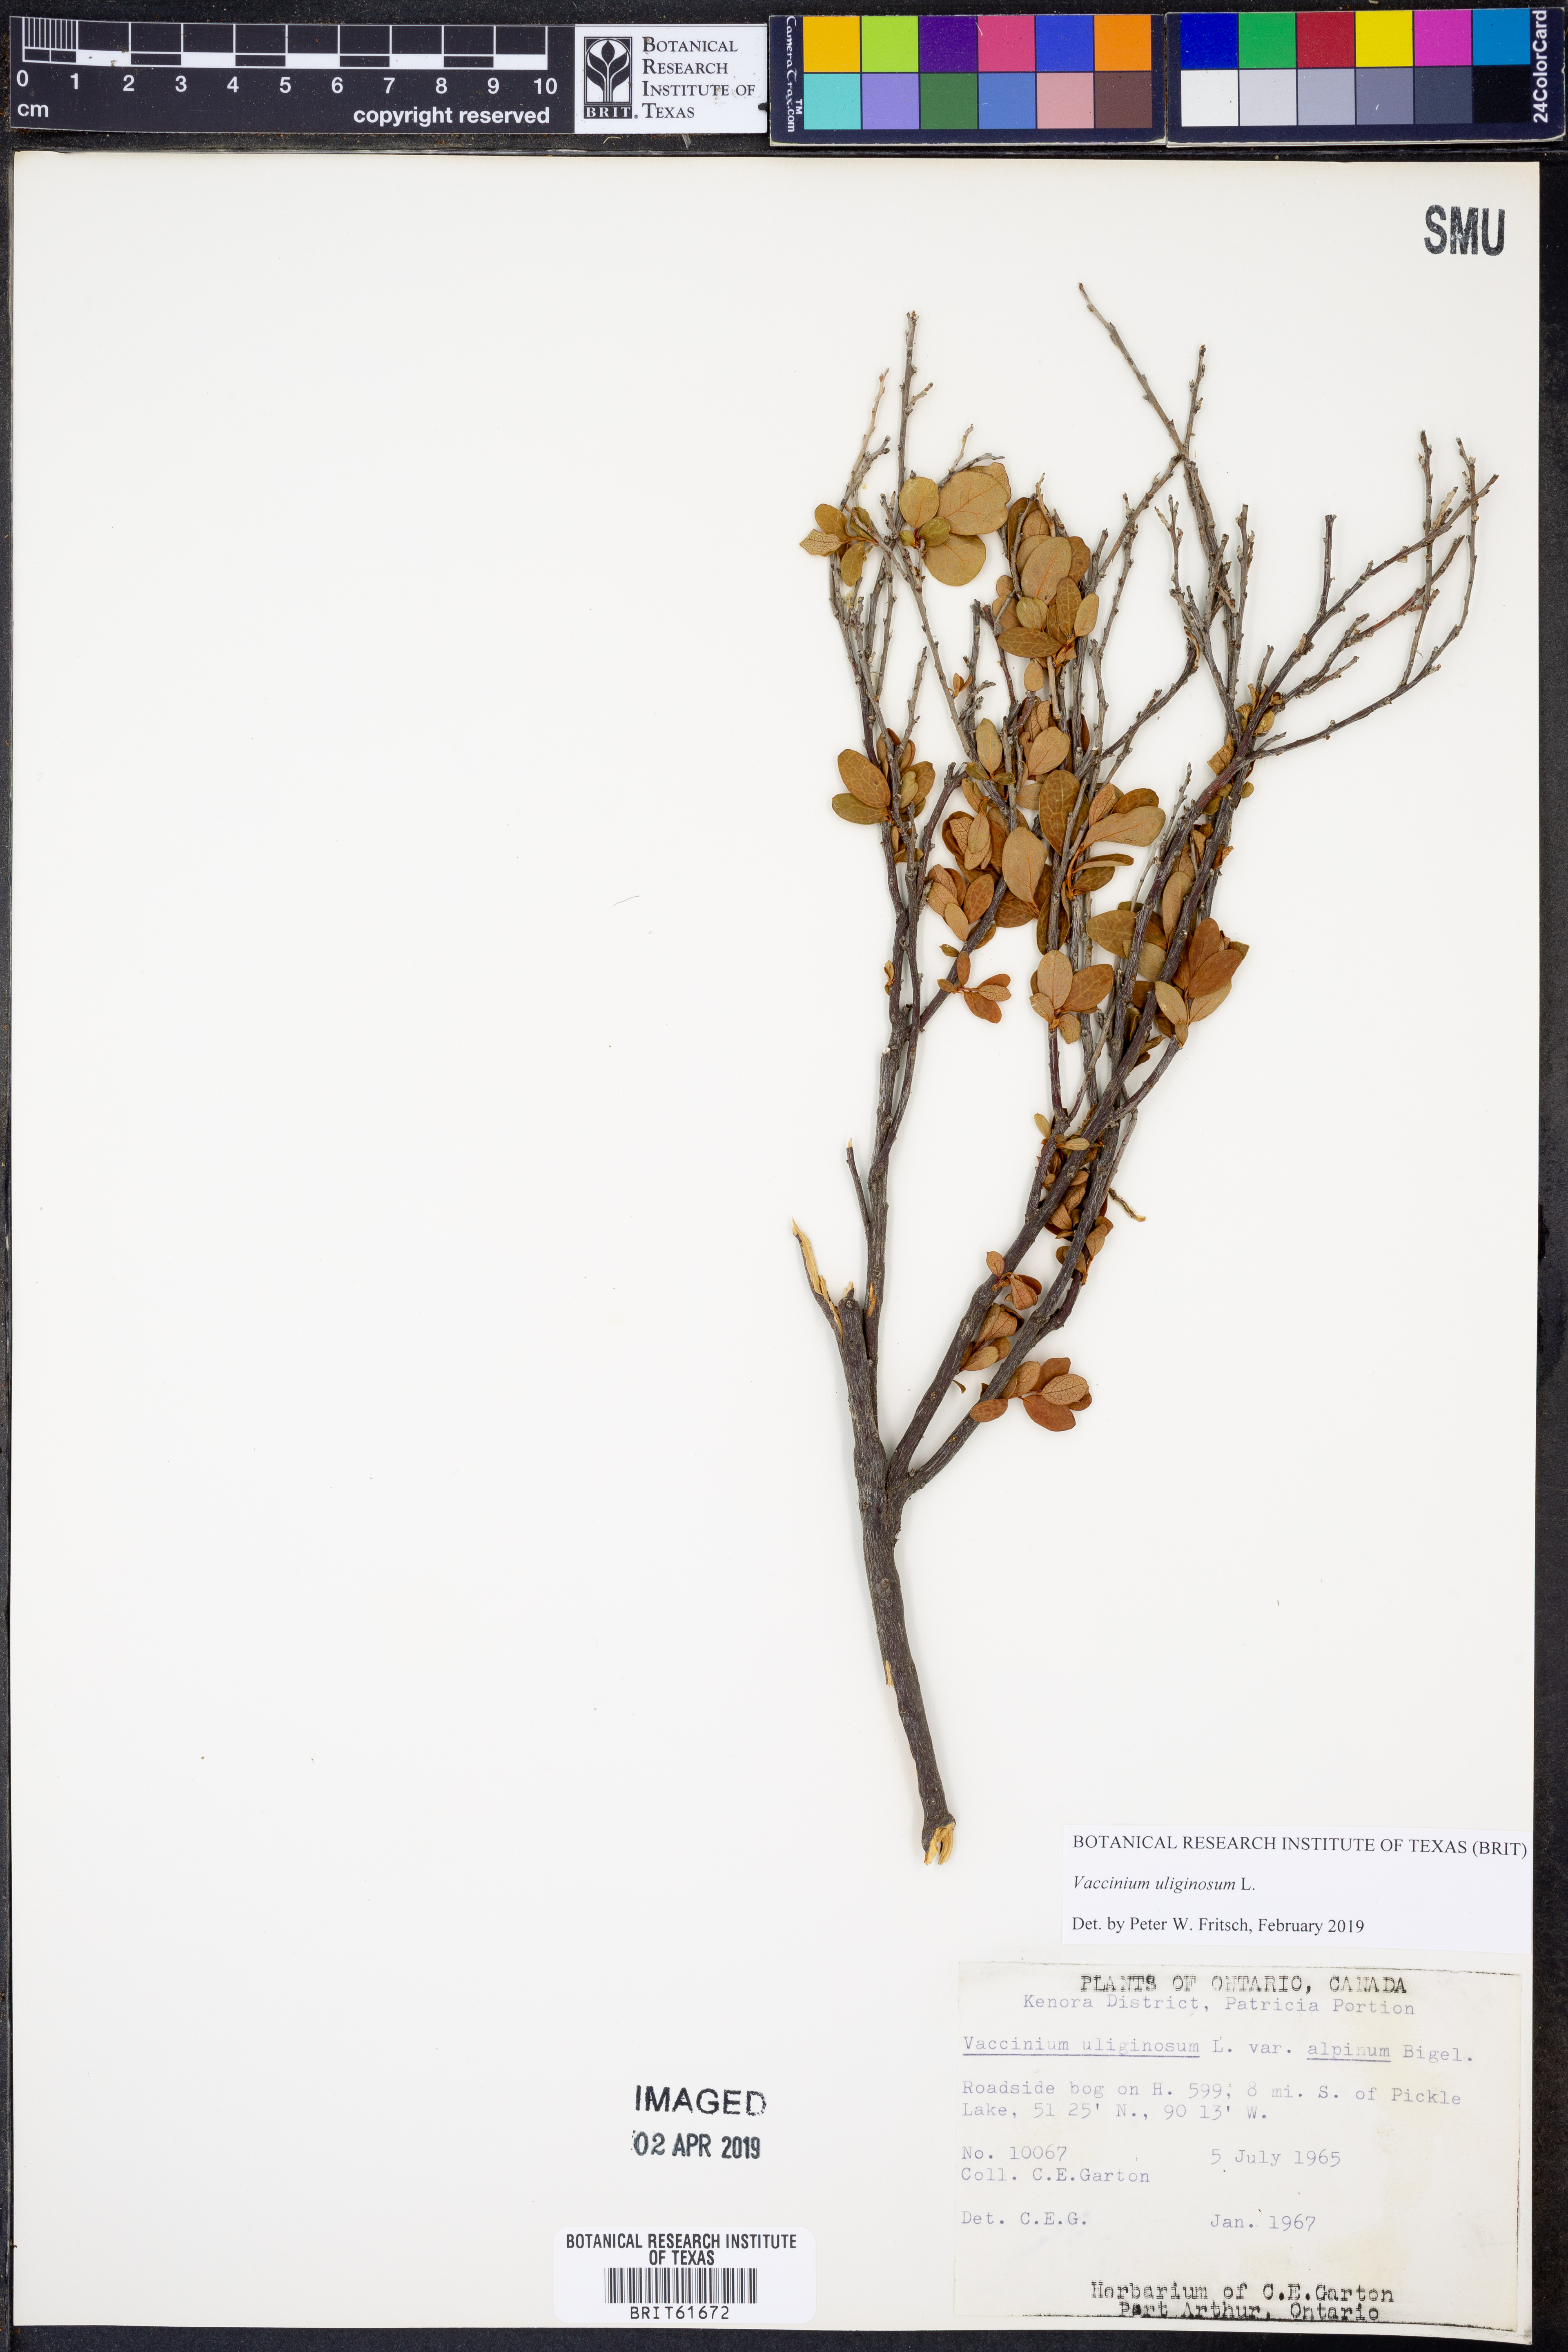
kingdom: Plantae
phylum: Tracheophyta
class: Magnoliopsida
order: Ericales
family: Ericaceae
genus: Vaccinium
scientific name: Vaccinium uliginosum
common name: Bog bilberry
